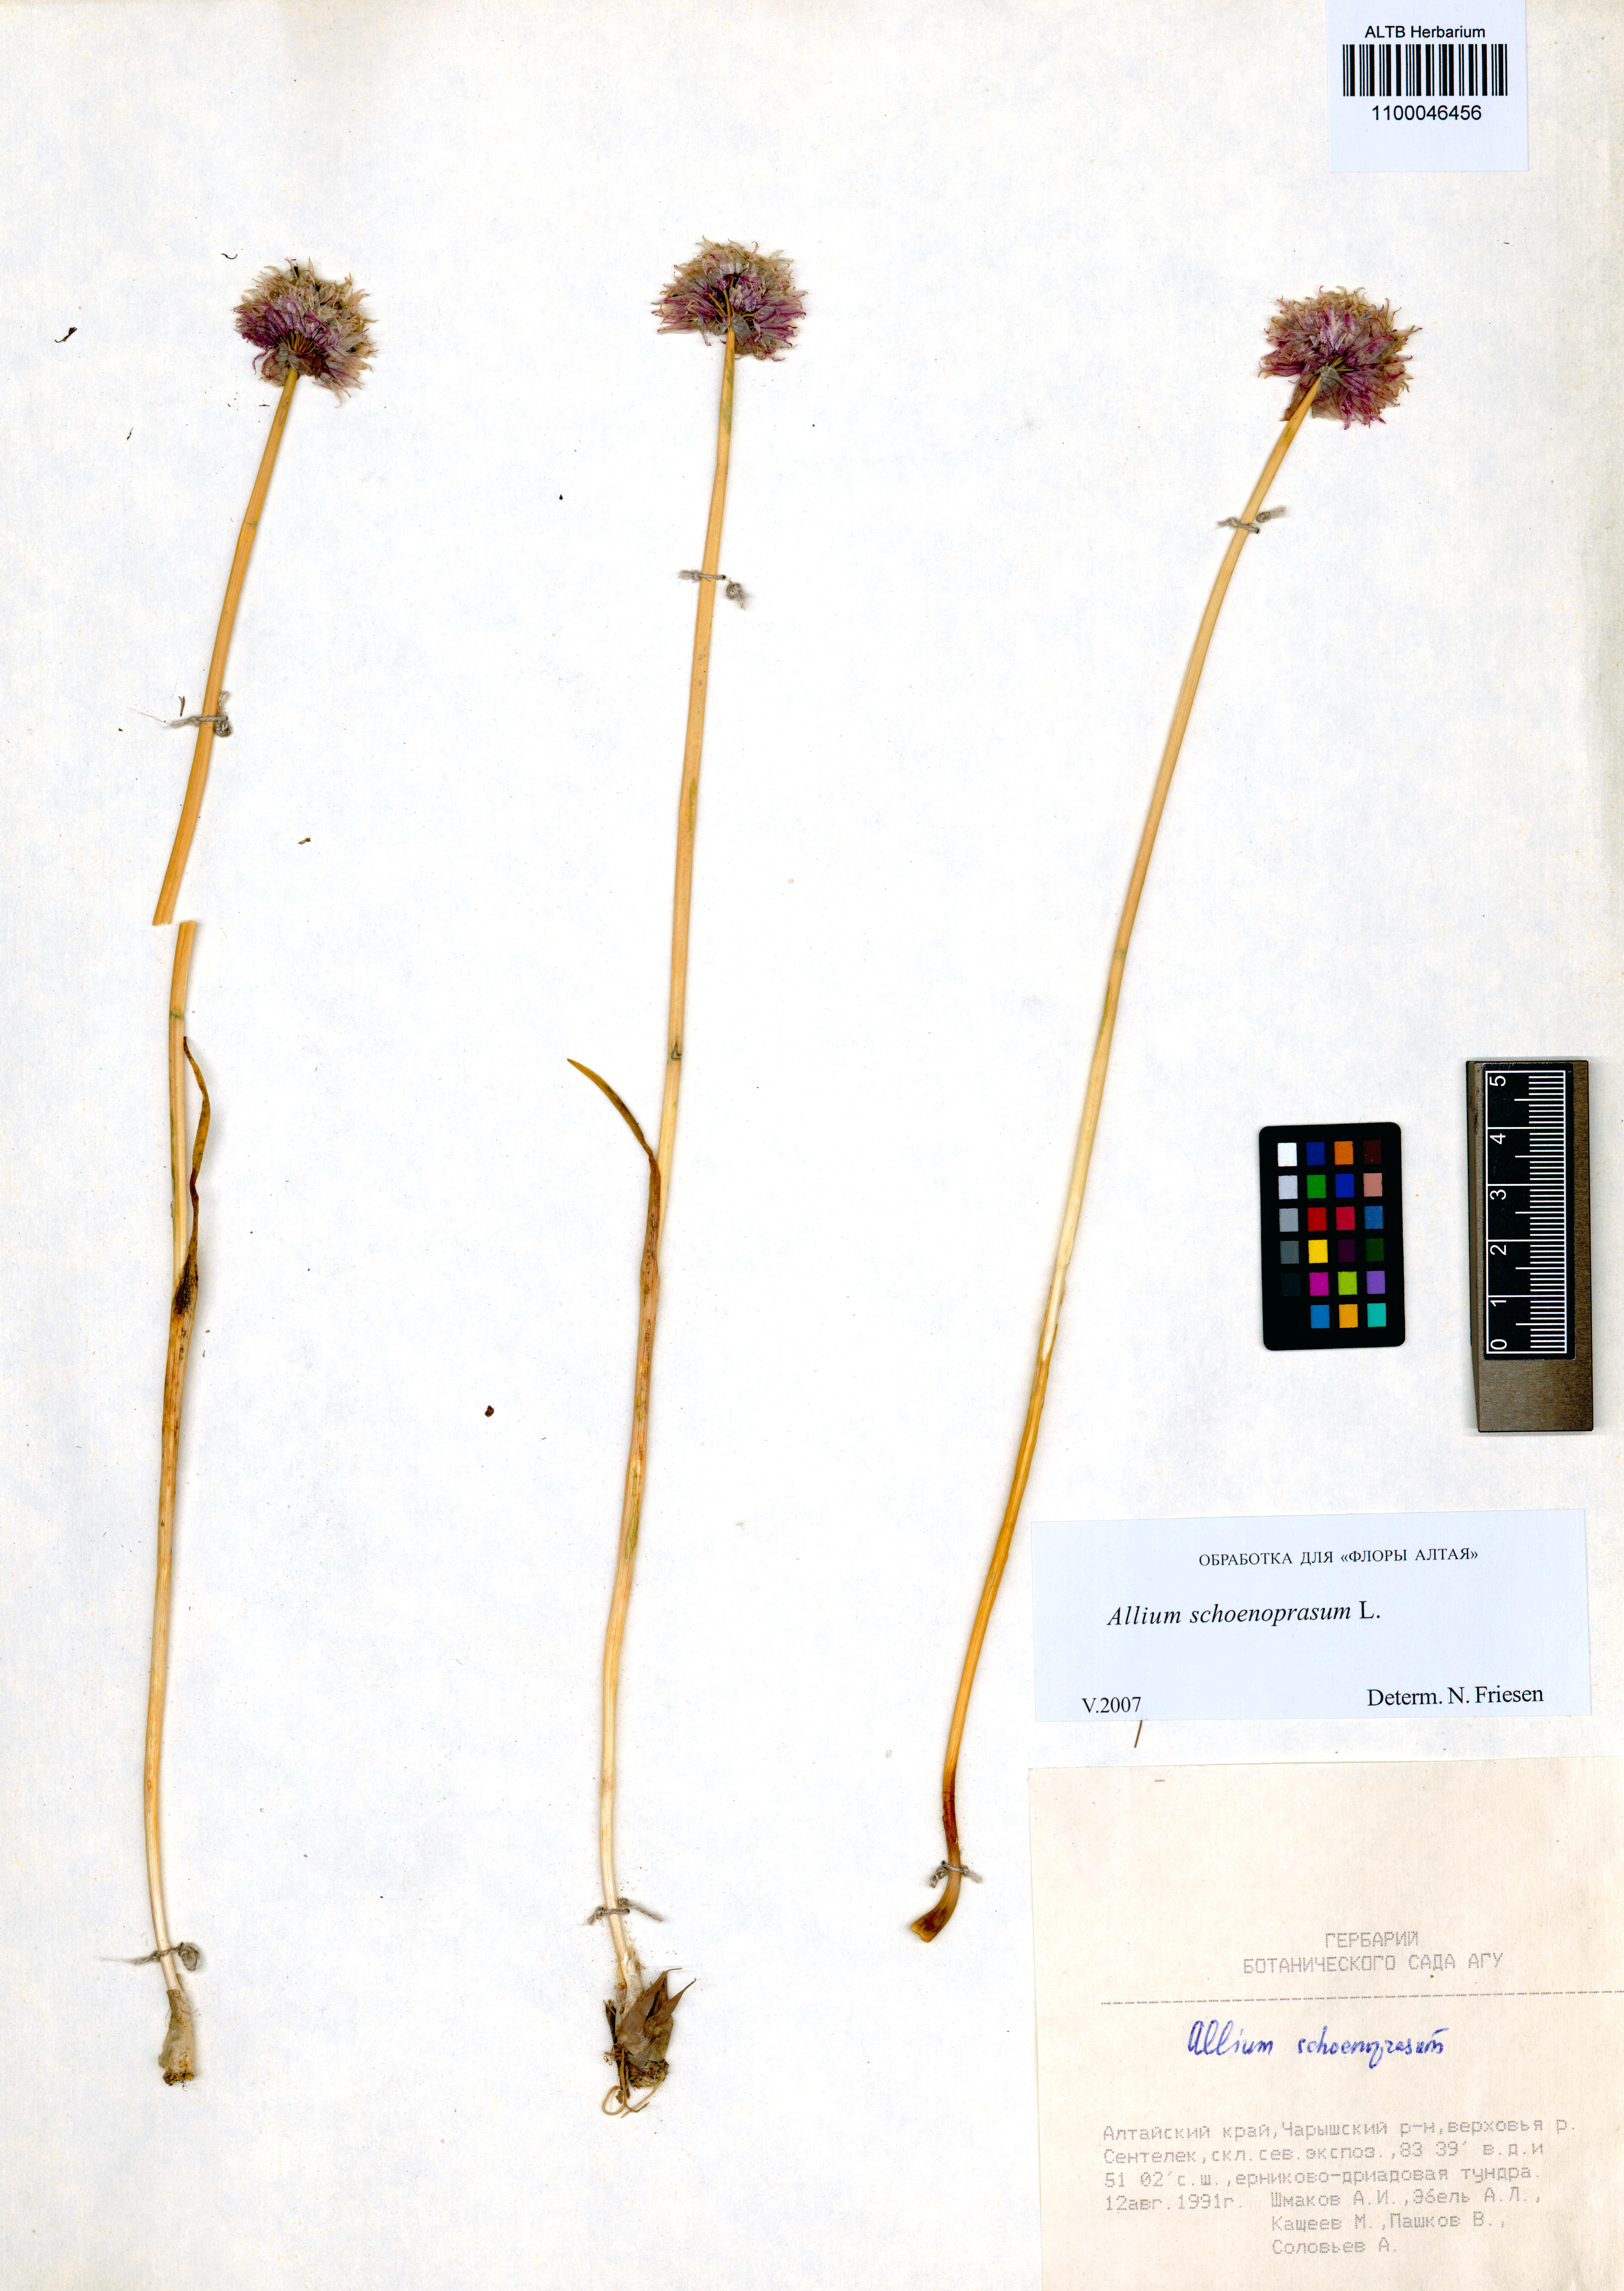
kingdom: Plantae
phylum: Tracheophyta
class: Liliopsida
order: Asparagales
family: Amaryllidaceae
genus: Allium
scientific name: Allium schoenoprasum
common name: Chives
